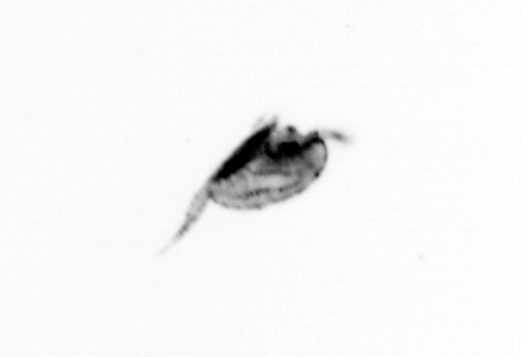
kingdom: Animalia
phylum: Arthropoda
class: Maxillopoda
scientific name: Maxillopoda
